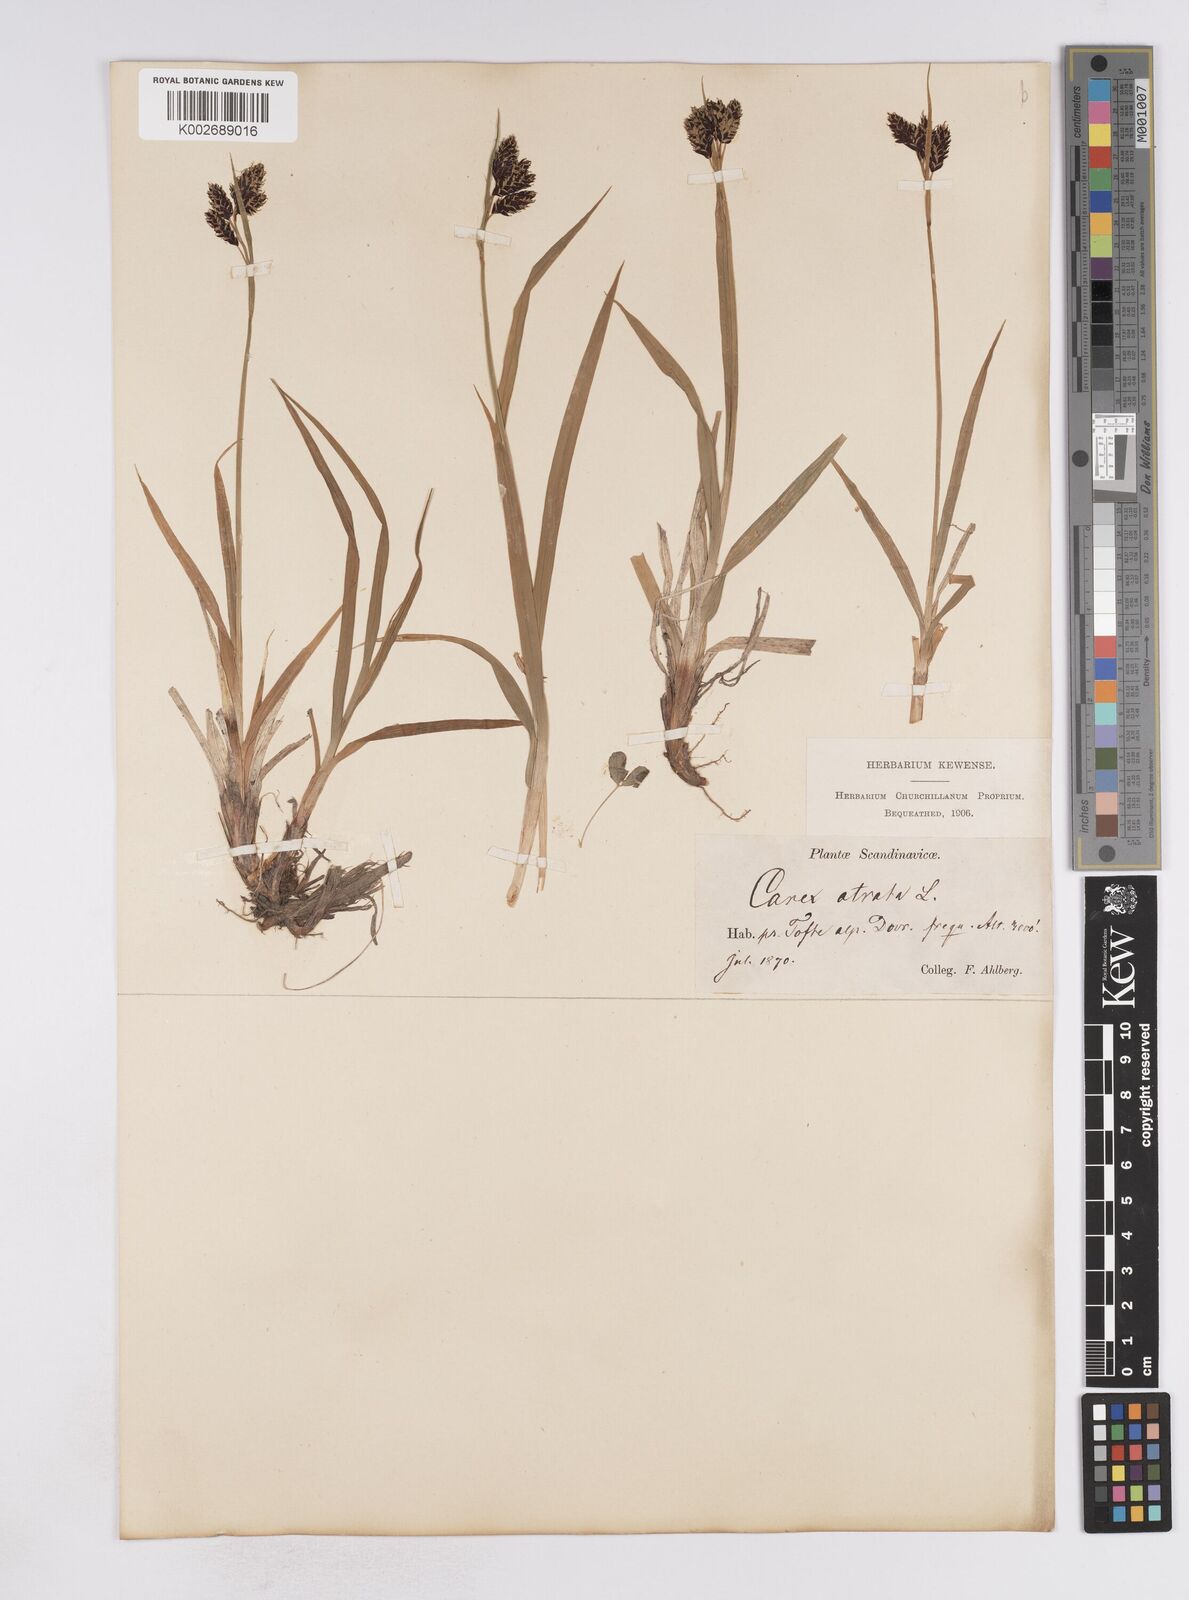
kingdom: Plantae
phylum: Tracheophyta
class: Liliopsida
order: Poales
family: Cyperaceae
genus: Carex
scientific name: Carex atrata
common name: Black alpine sedge
